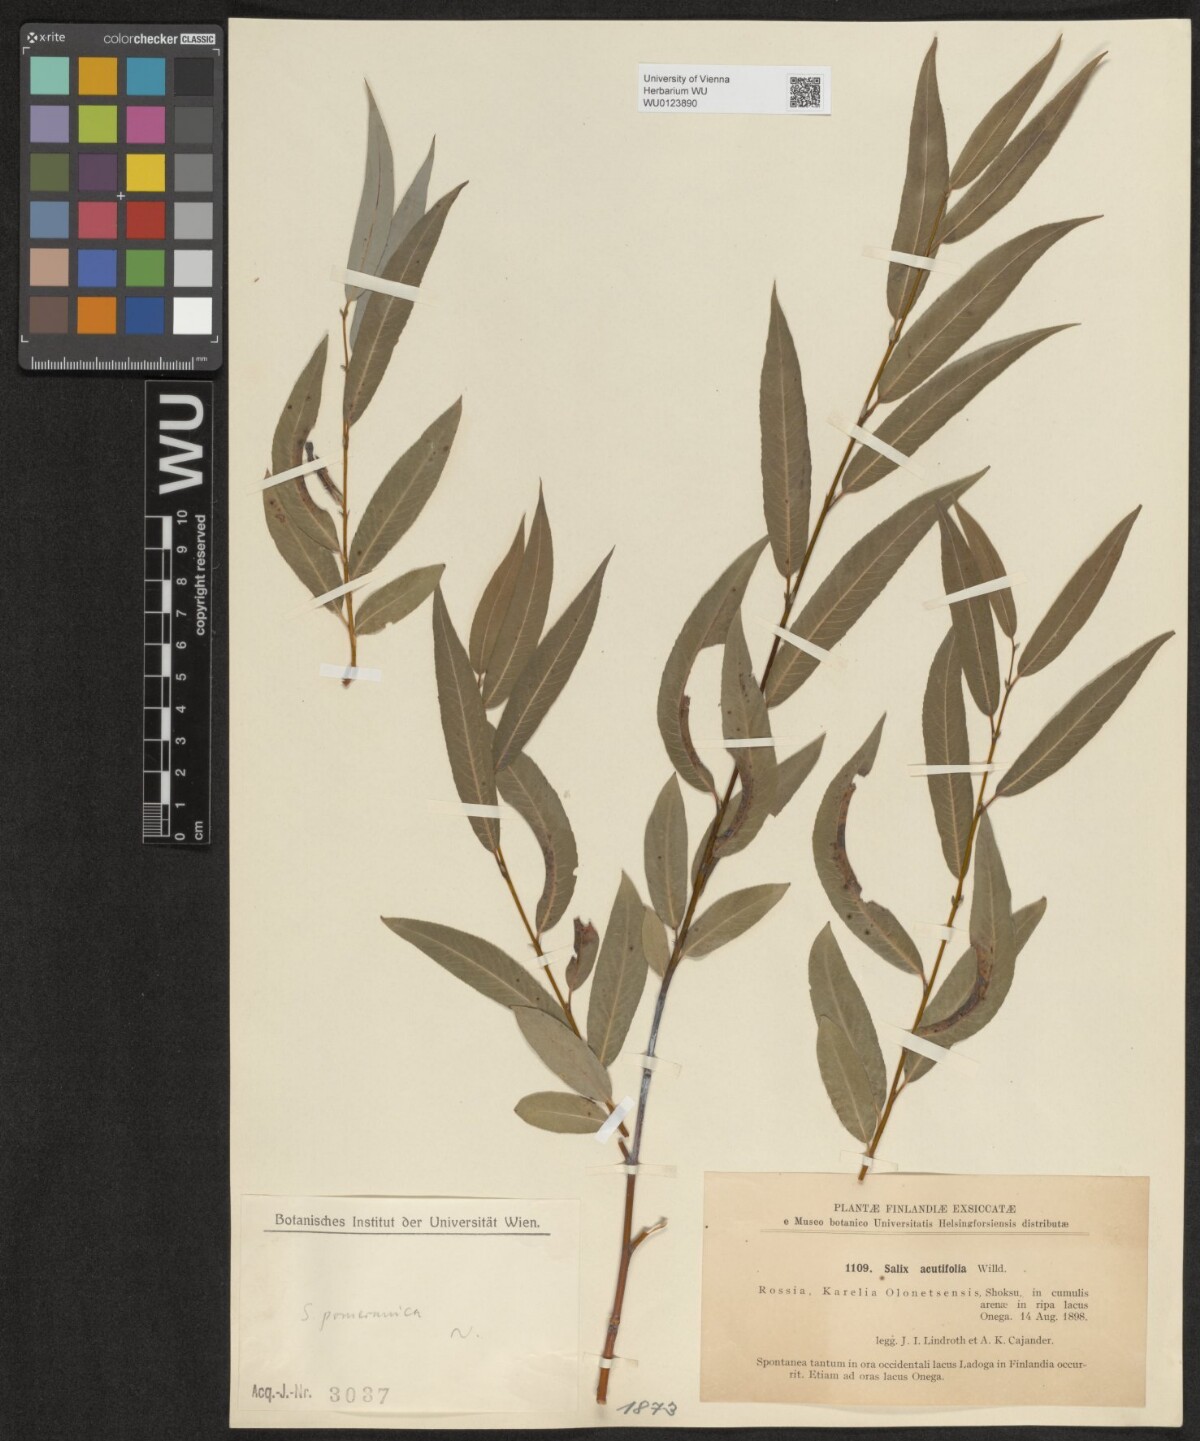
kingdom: Plantae
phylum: Tracheophyta
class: Magnoliopsida
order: Malpighiales
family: Salicaceae
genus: Salix
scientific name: Salix acutifolia
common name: Siberian violet-willow
